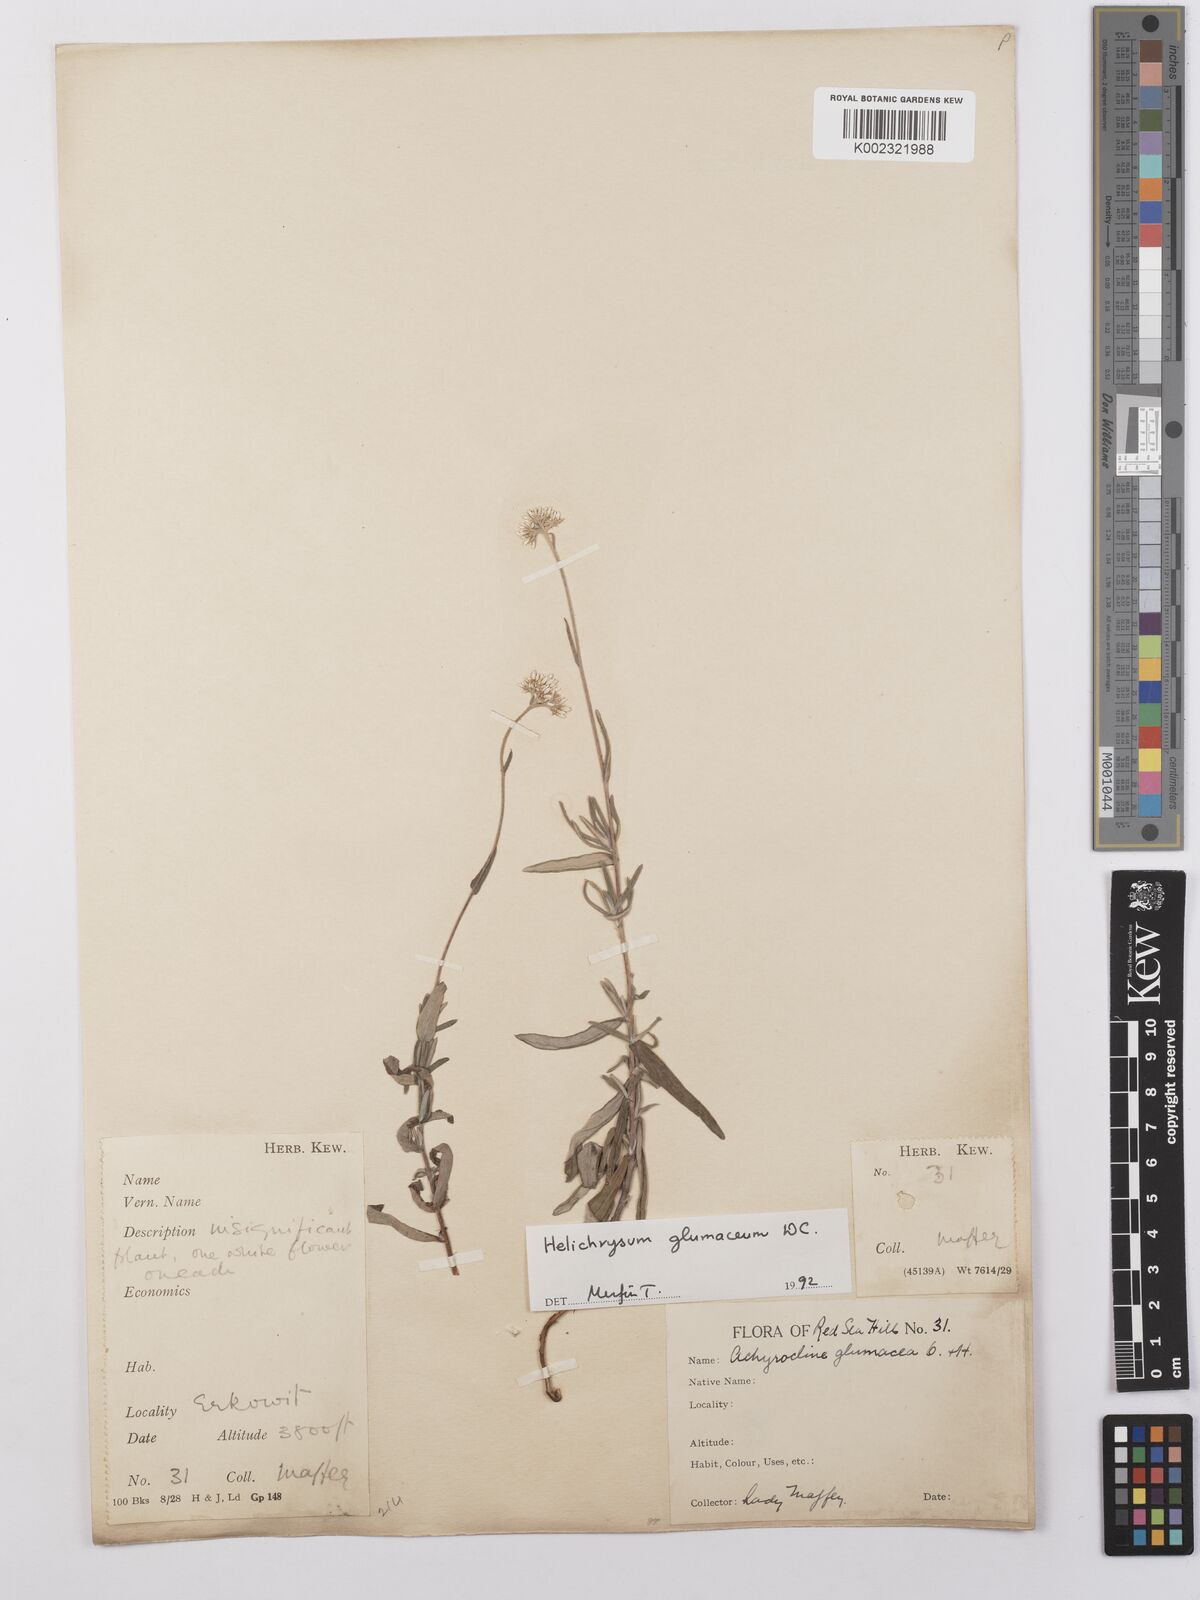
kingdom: Plantae
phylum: Tracheophyta
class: Magnoliopsida
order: Asterales
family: Asteraceae
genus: Helichrysum
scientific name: Helichrysum glumaceum
